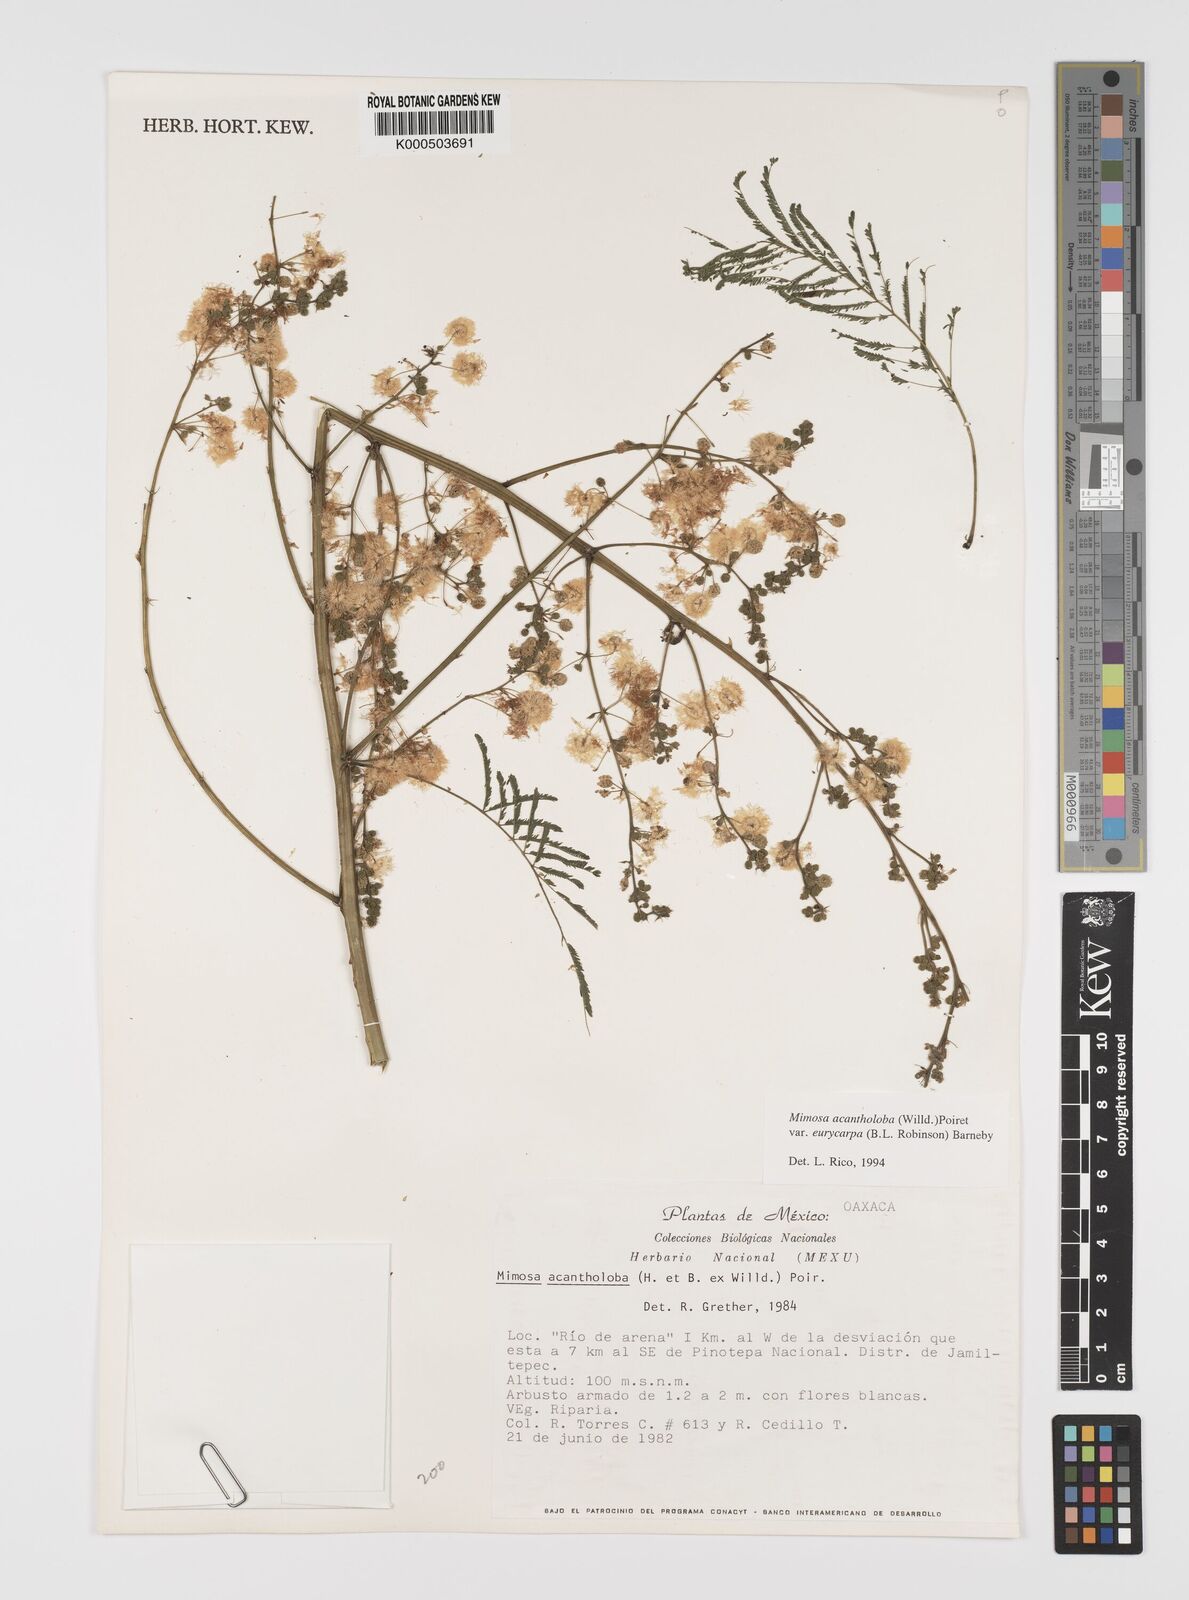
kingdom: Plantae
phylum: Tracheophyta
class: Magnoliopsida
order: Fabales
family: Fabaceae
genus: Mimosa
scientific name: Mimosa acantholoba
